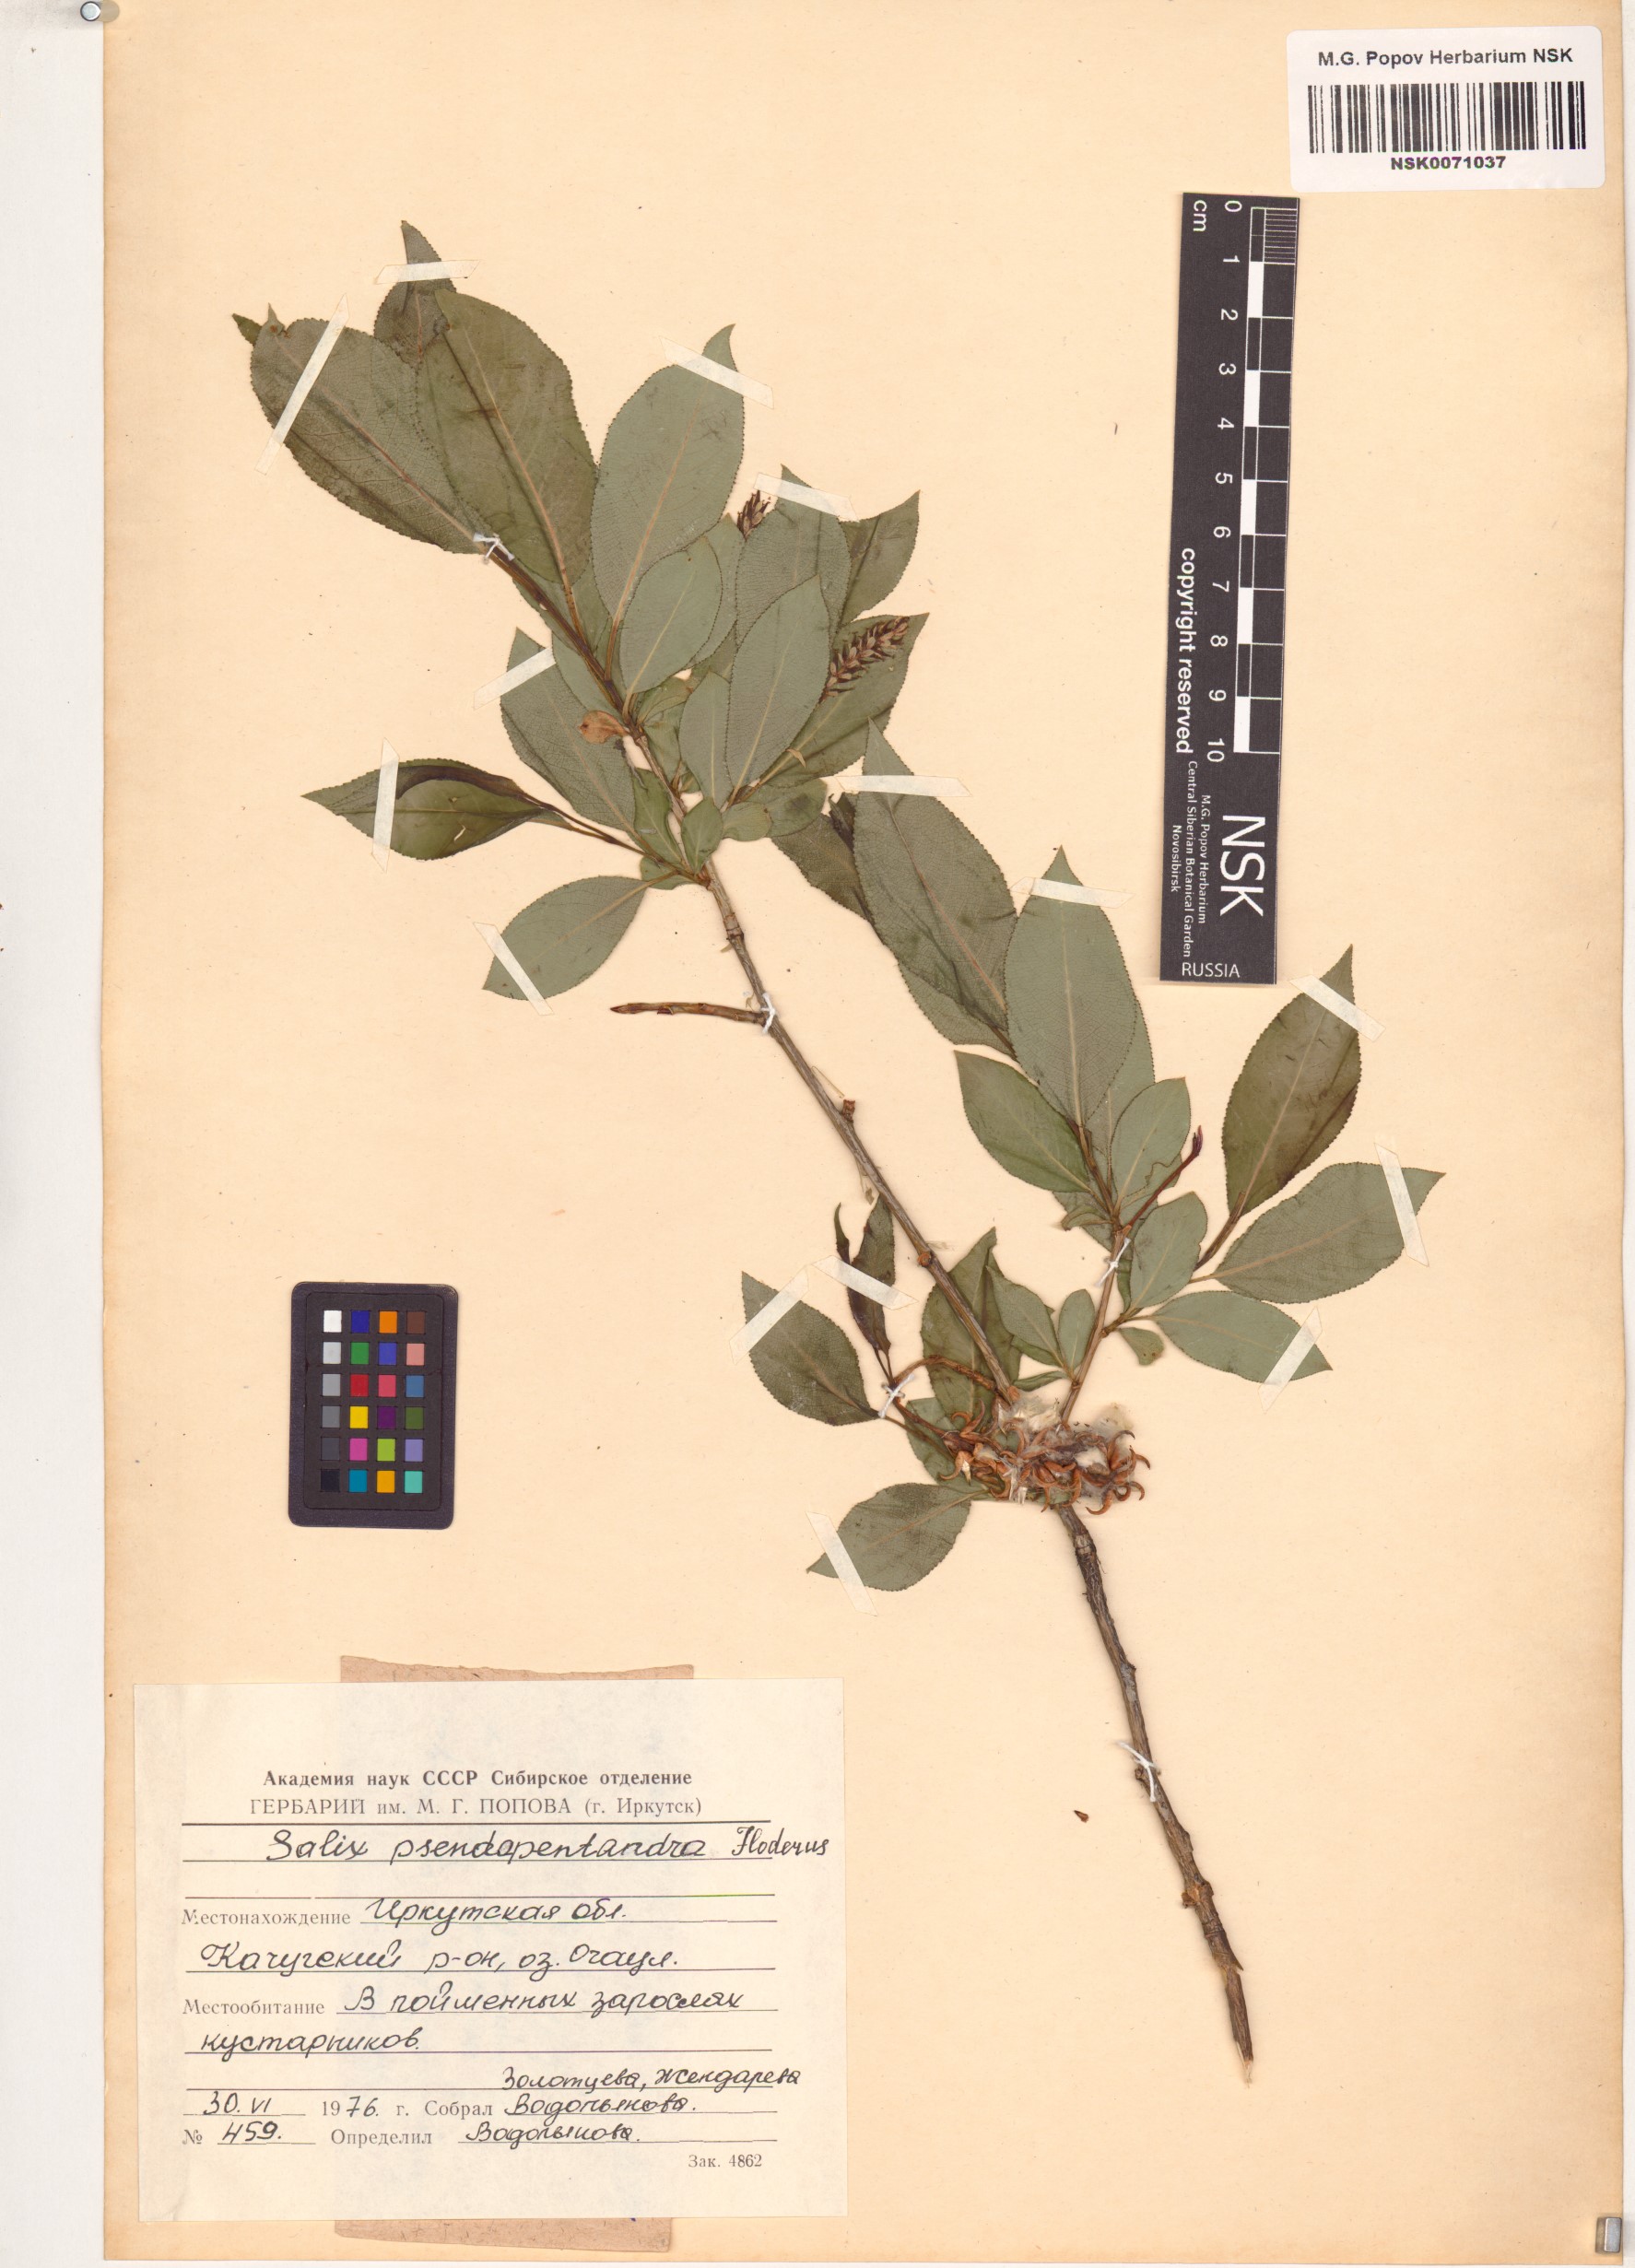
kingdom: Plantae
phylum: Tracheophyta
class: Magnoliopsida
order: Malpighiales
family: Salicaceae
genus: Salix
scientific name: Salix pseudopentandra
